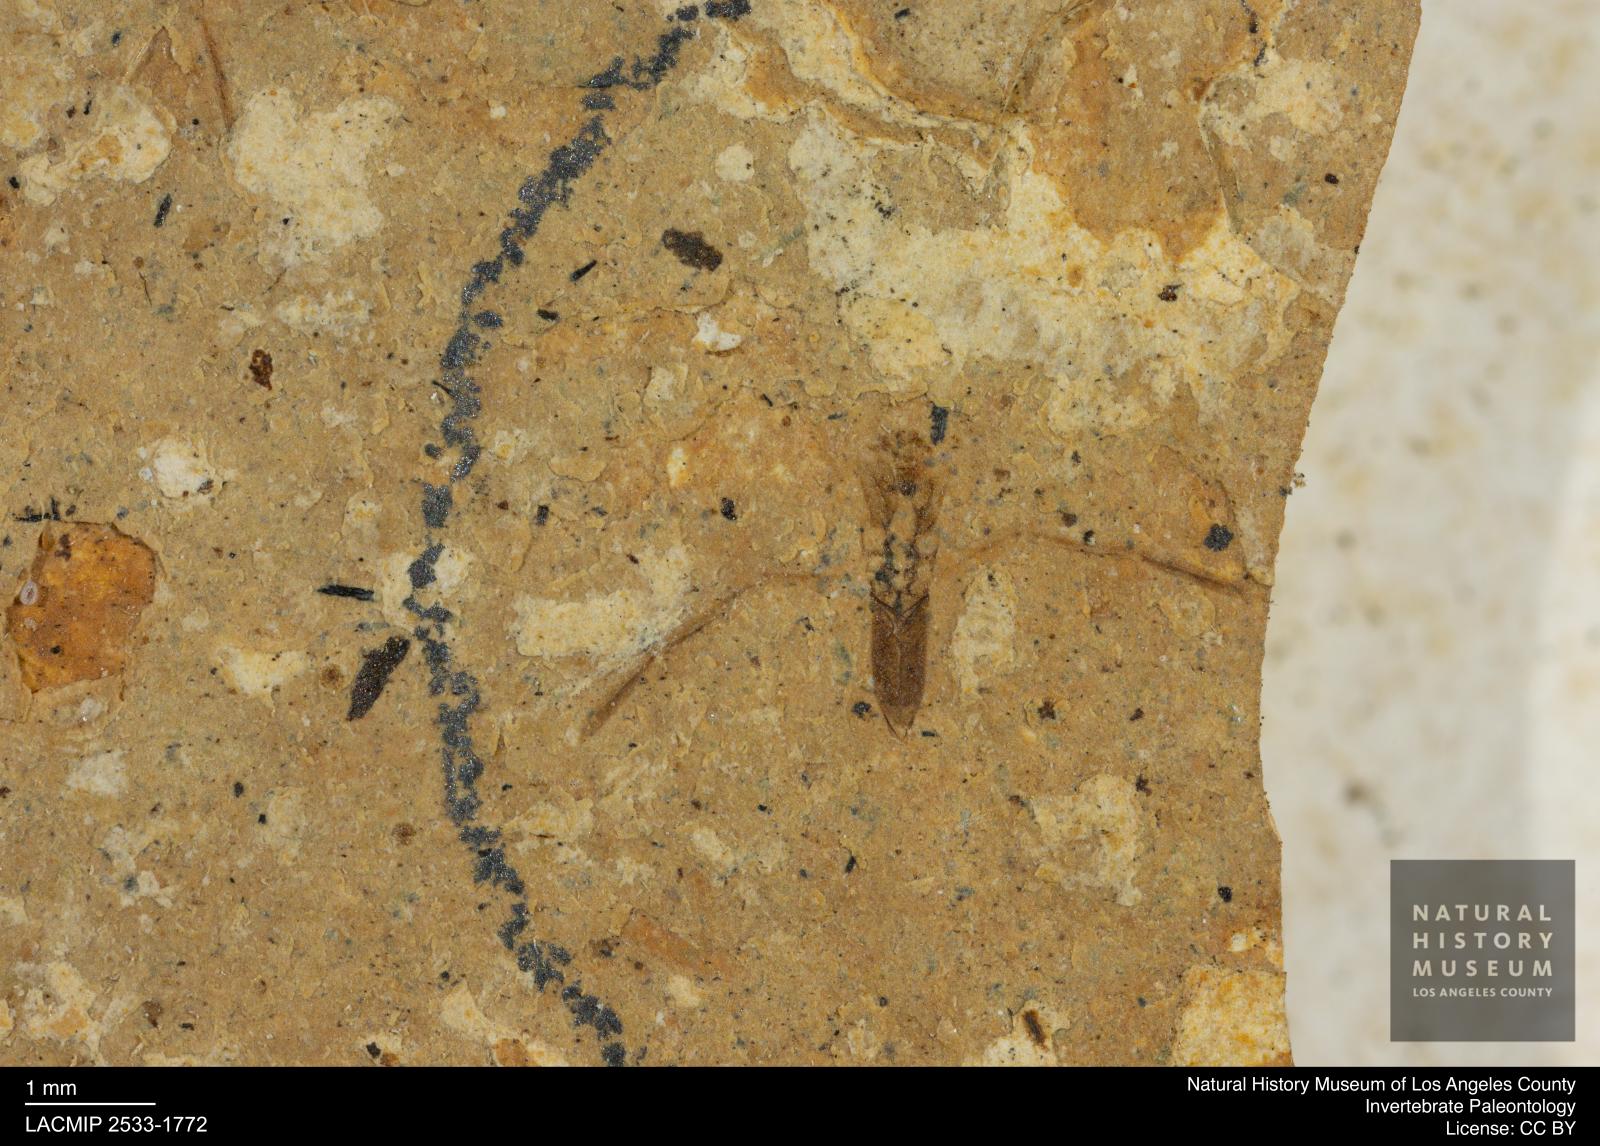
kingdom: Animalia
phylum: Arthropoda
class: Insecta
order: Hemiptera
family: Notonectidae
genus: Notonecta
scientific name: Notonecta
